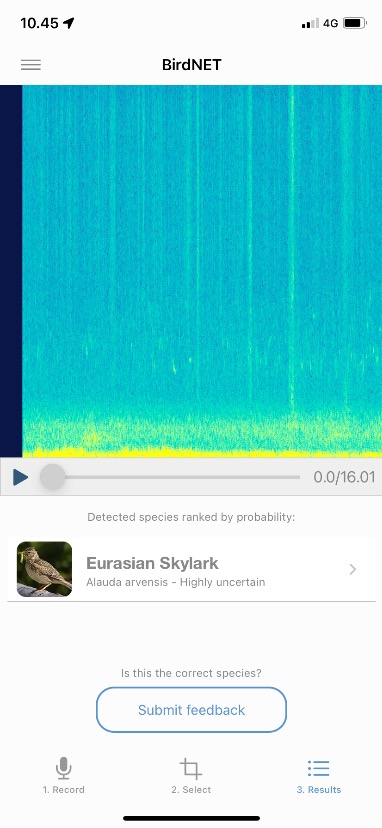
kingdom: Animalia
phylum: Chordata
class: Aves
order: Passeriformes
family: Alaudidae
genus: Alauda
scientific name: Alauda arvensis
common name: Sanglærke
